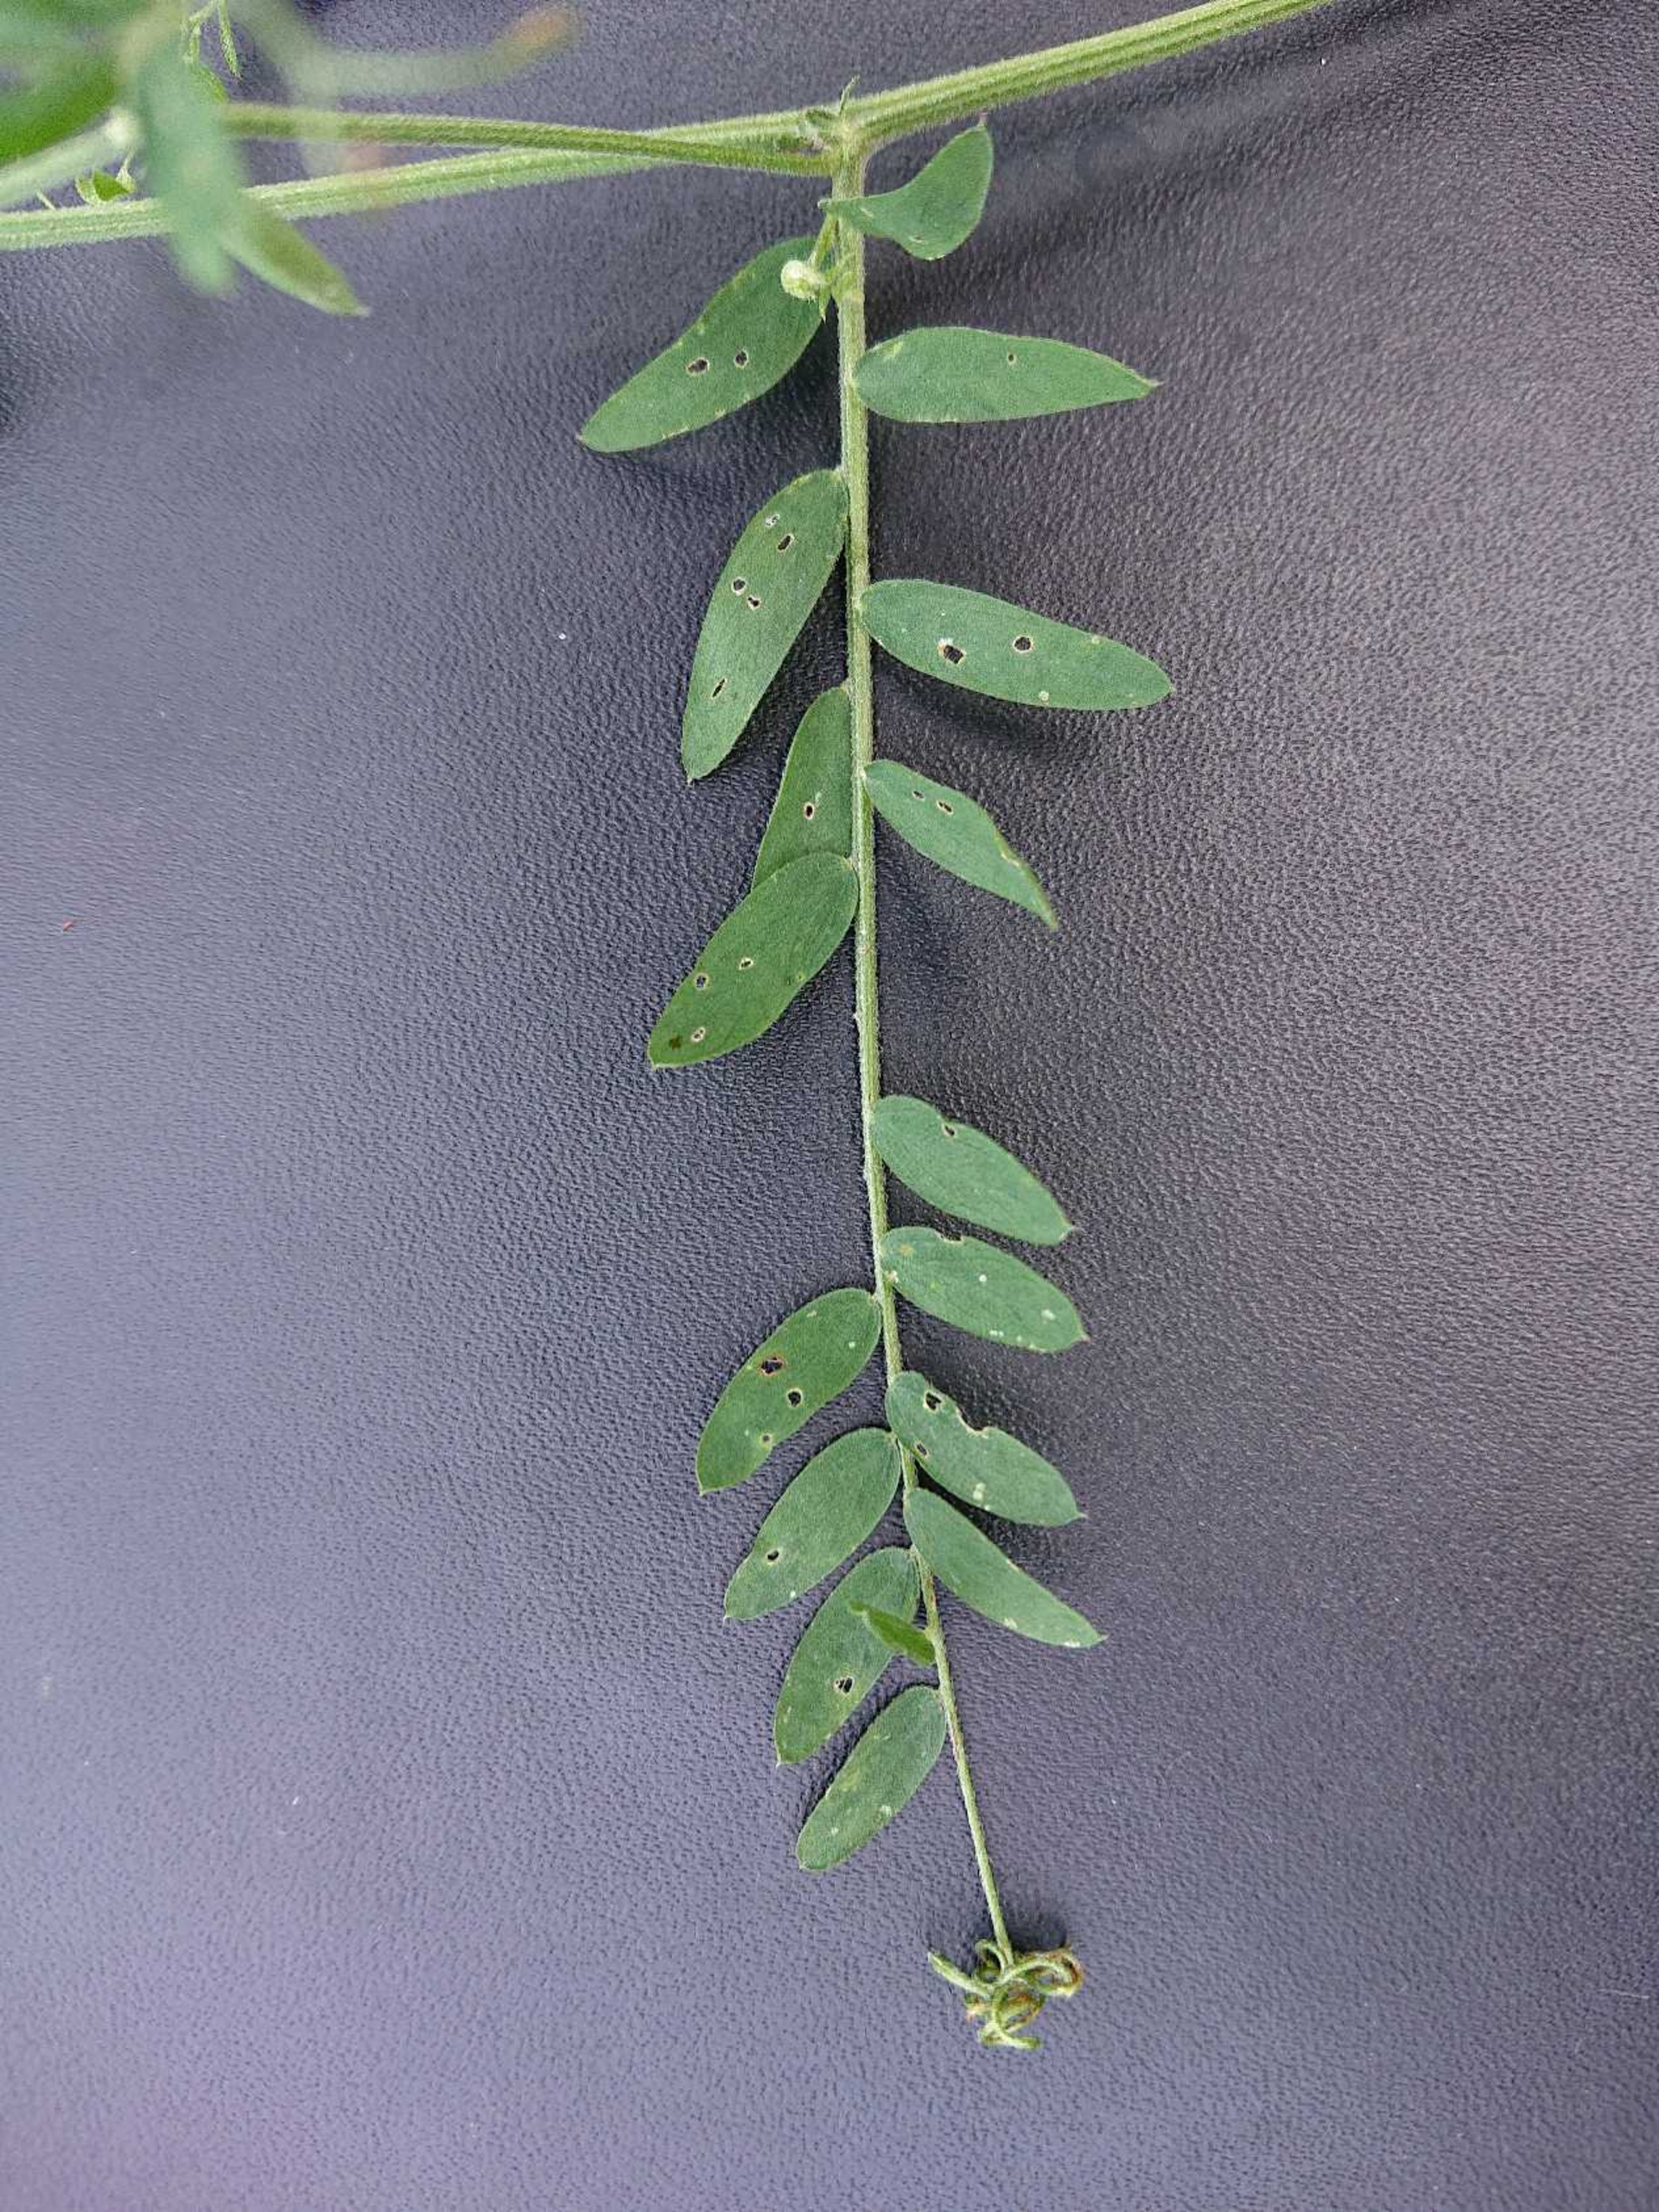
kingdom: Plantae
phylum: Tracheophyta
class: Magnoliopsida
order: Fabales
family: Fabaceae
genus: Vicia
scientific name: Vicia cracca
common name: Muse-vikke
